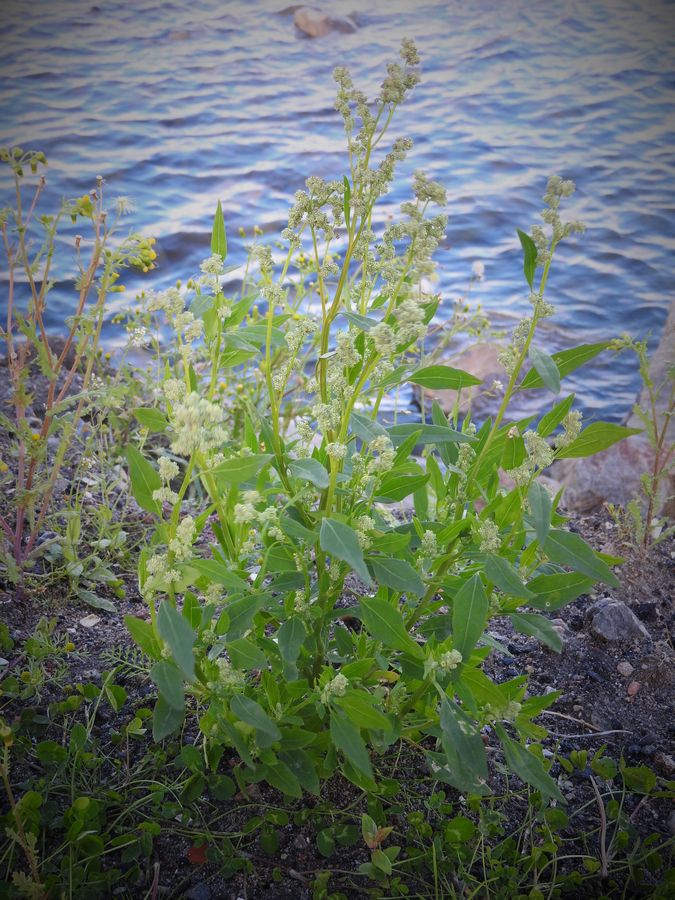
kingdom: Plantae
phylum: Tracheophyta
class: Magnoliopsida
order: Caryophyllales
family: Amaranthaceae
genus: Chenopodium
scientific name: Chenopodium album
